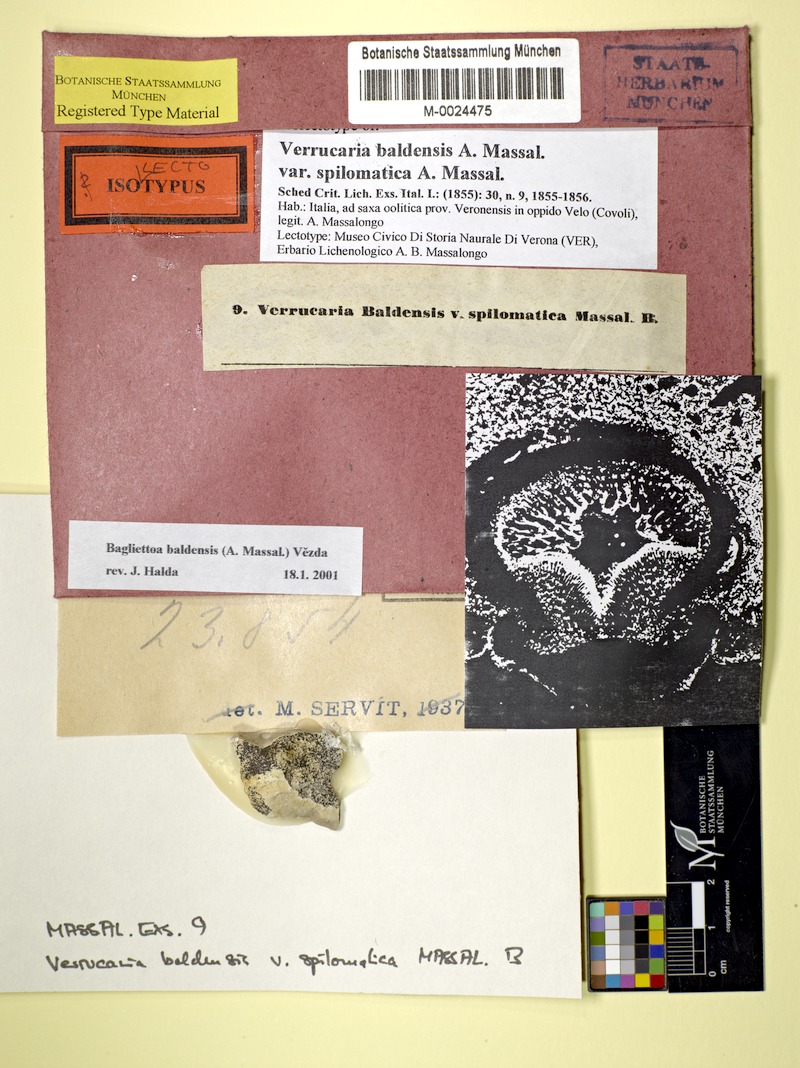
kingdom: Fungi
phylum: Ascomycota
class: Eurotiomycetes
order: Verrucariales
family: Verrucariaceae
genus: Bagliettoa
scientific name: Bagliettoa baldensis
